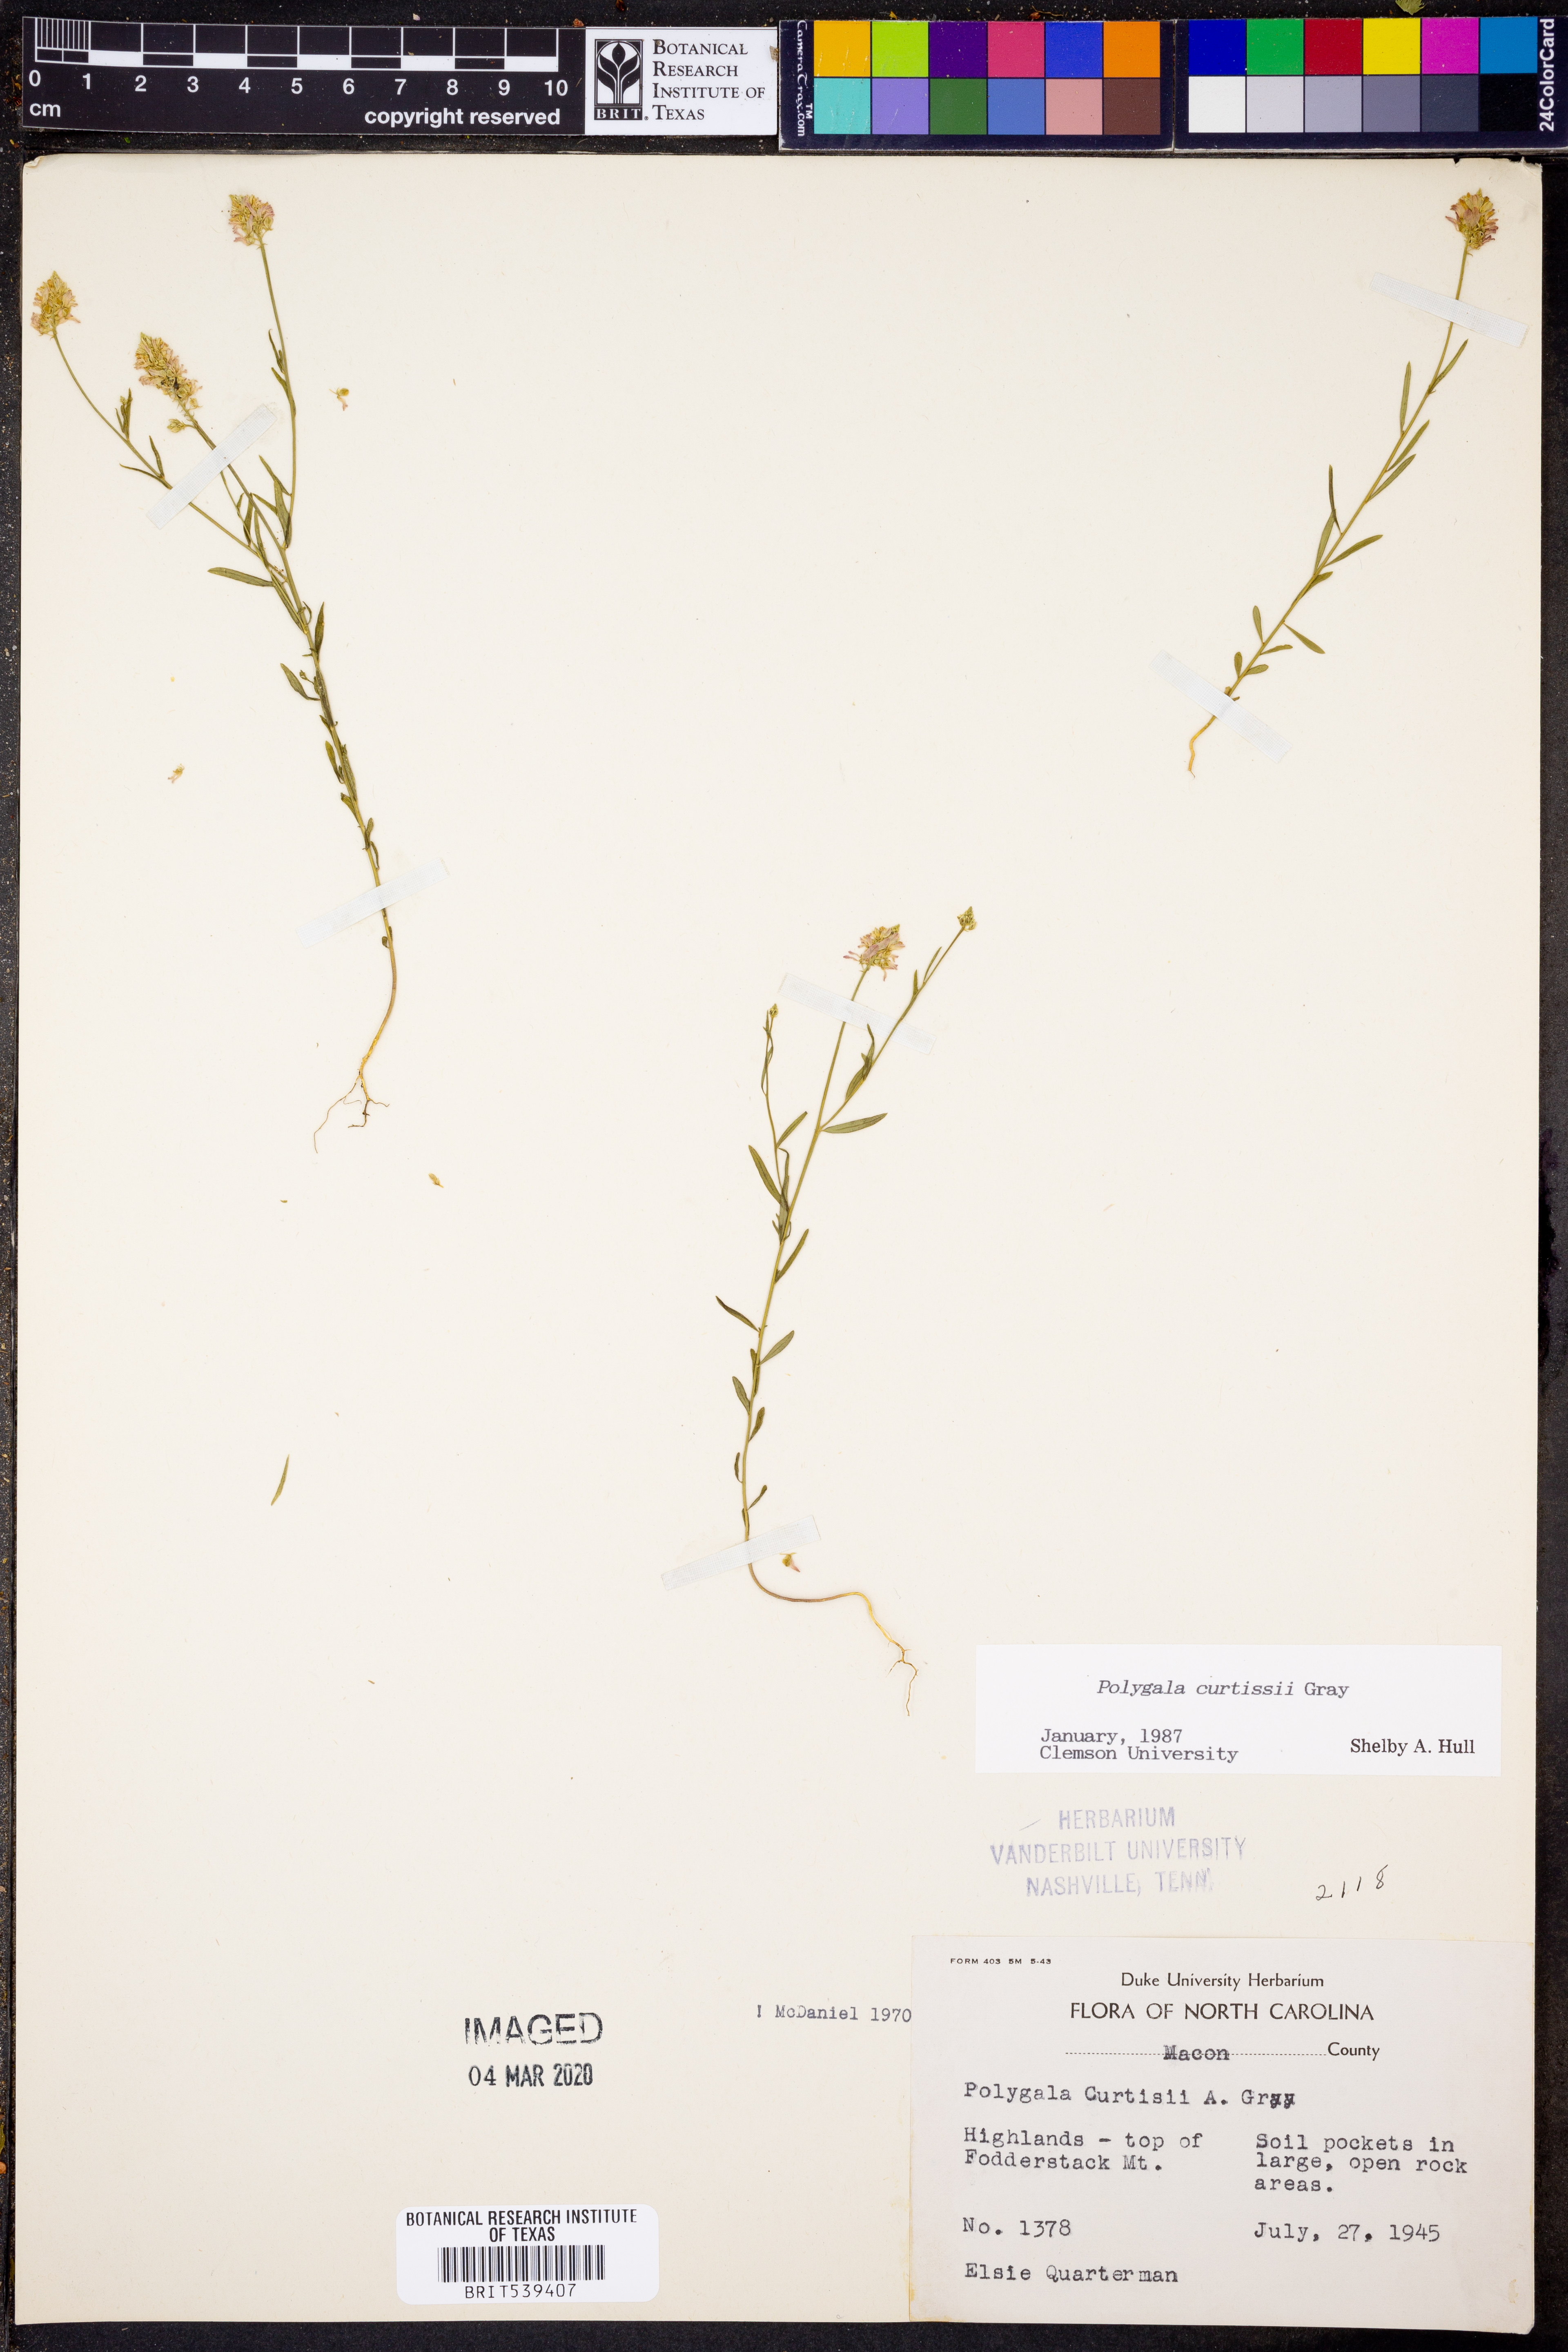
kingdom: Plantae
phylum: Tracheophyta
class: Magnoliopsida
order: Fabales
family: Polygalaceae
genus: Polygala
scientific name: Polygala curtissii
